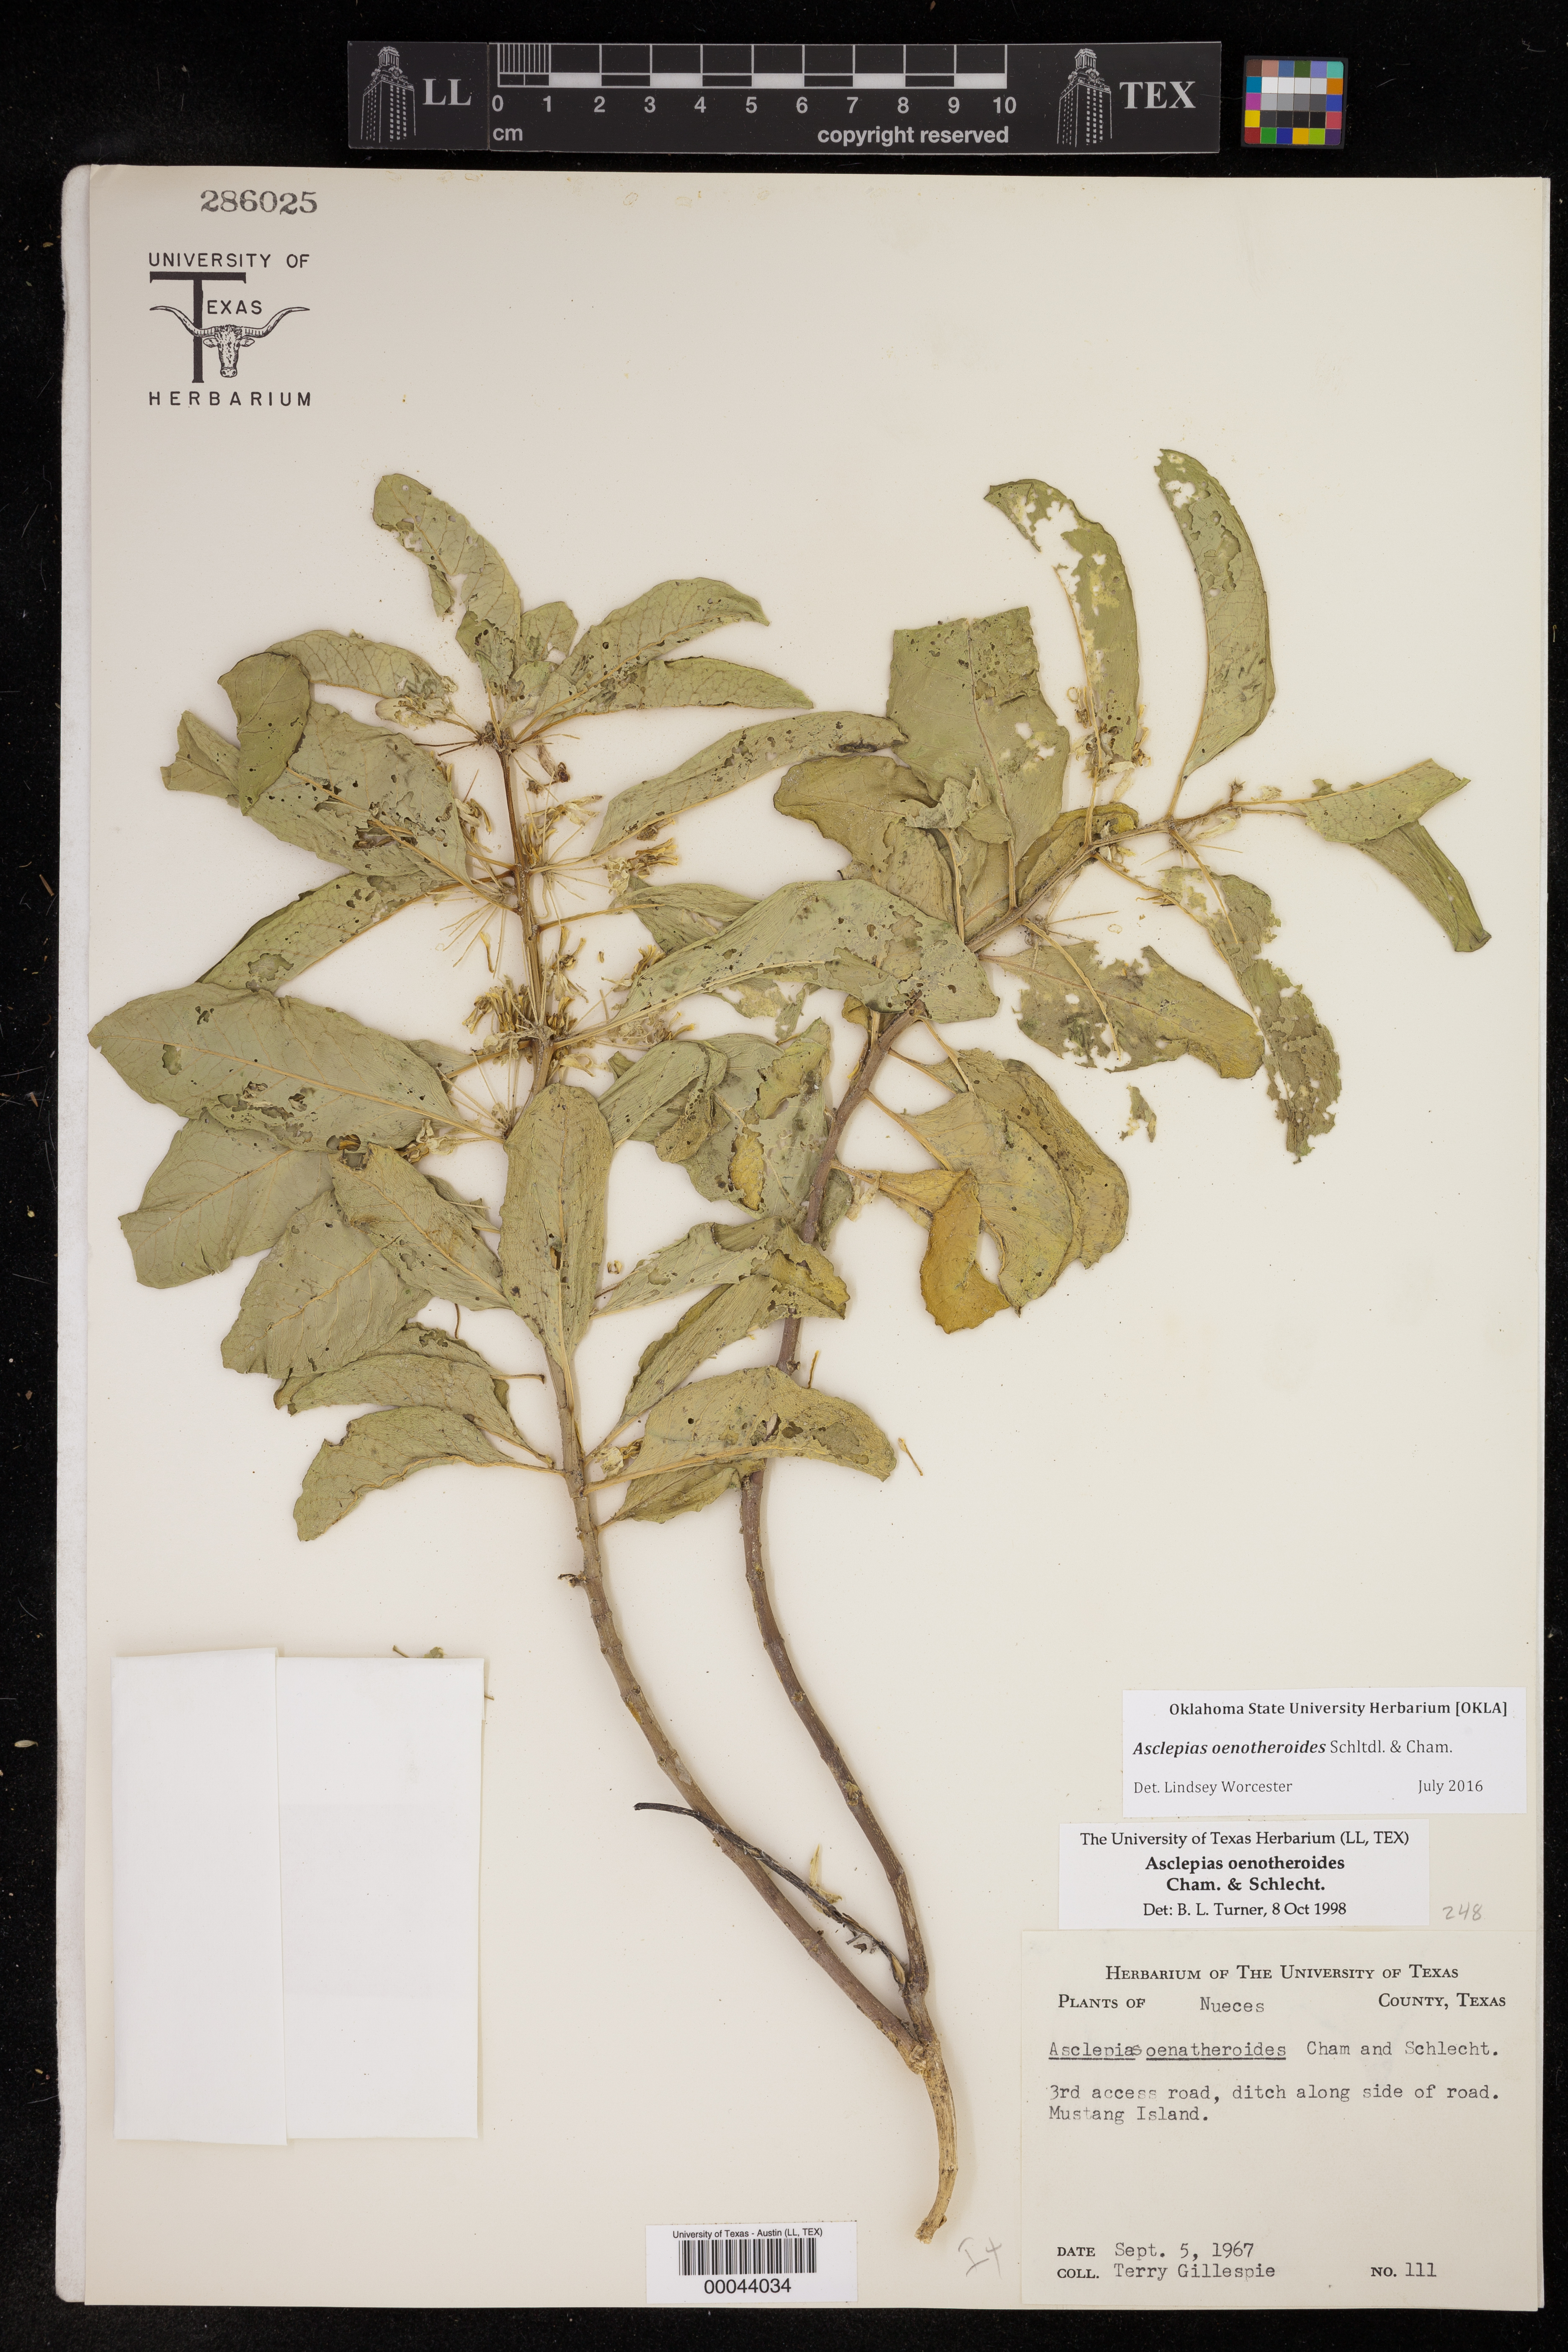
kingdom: Plantae
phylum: Tracheophyta
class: Magnoliopsida
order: Gentianales
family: Apocynaceae
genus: Asclepias
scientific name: Asclepias oenotheroides
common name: Zizotes milkweed
